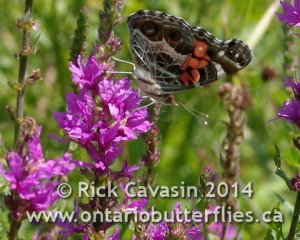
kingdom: Animalia
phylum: Arthropoda
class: Insecta
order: Lepidoptera
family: Nymphalidae
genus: Vanessa
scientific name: Vanessa virginiensis
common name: American Lady
